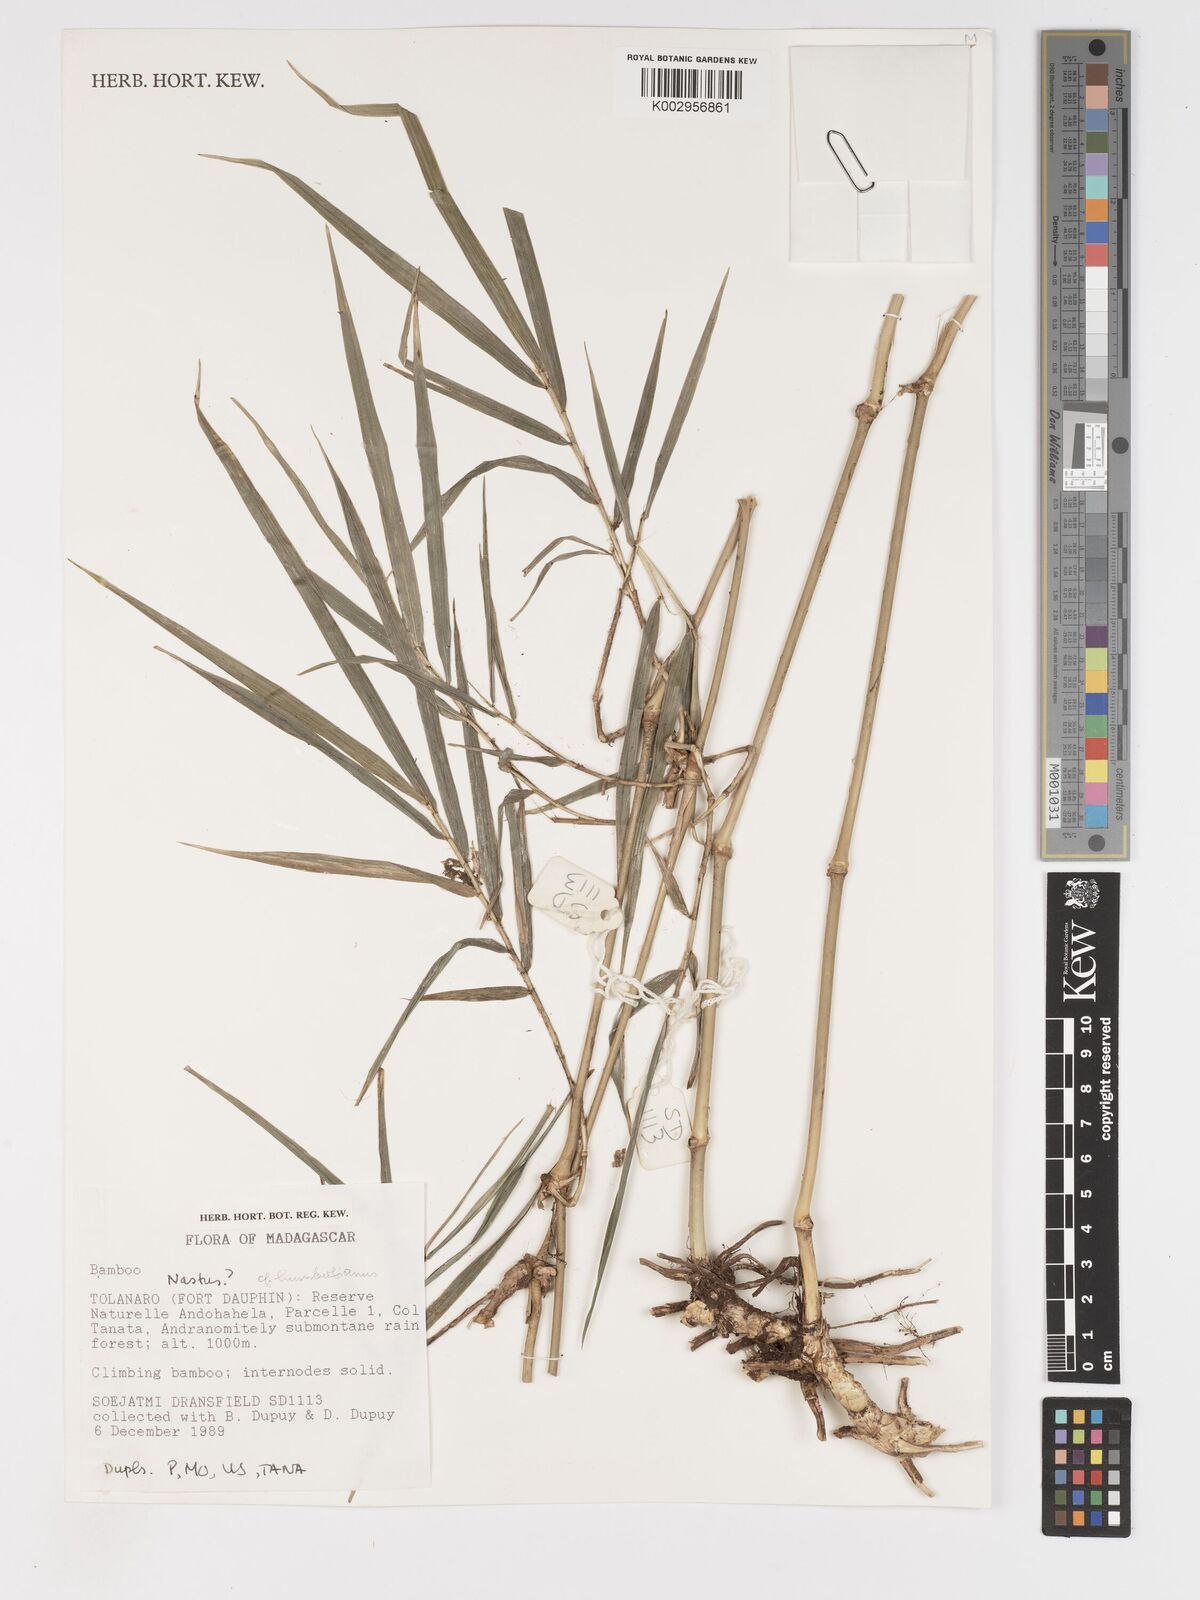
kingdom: Plantae
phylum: Tracheophyta
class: Liliopsida
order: Poales
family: Poaceae
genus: Nastus
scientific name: Nastus humbertianus
